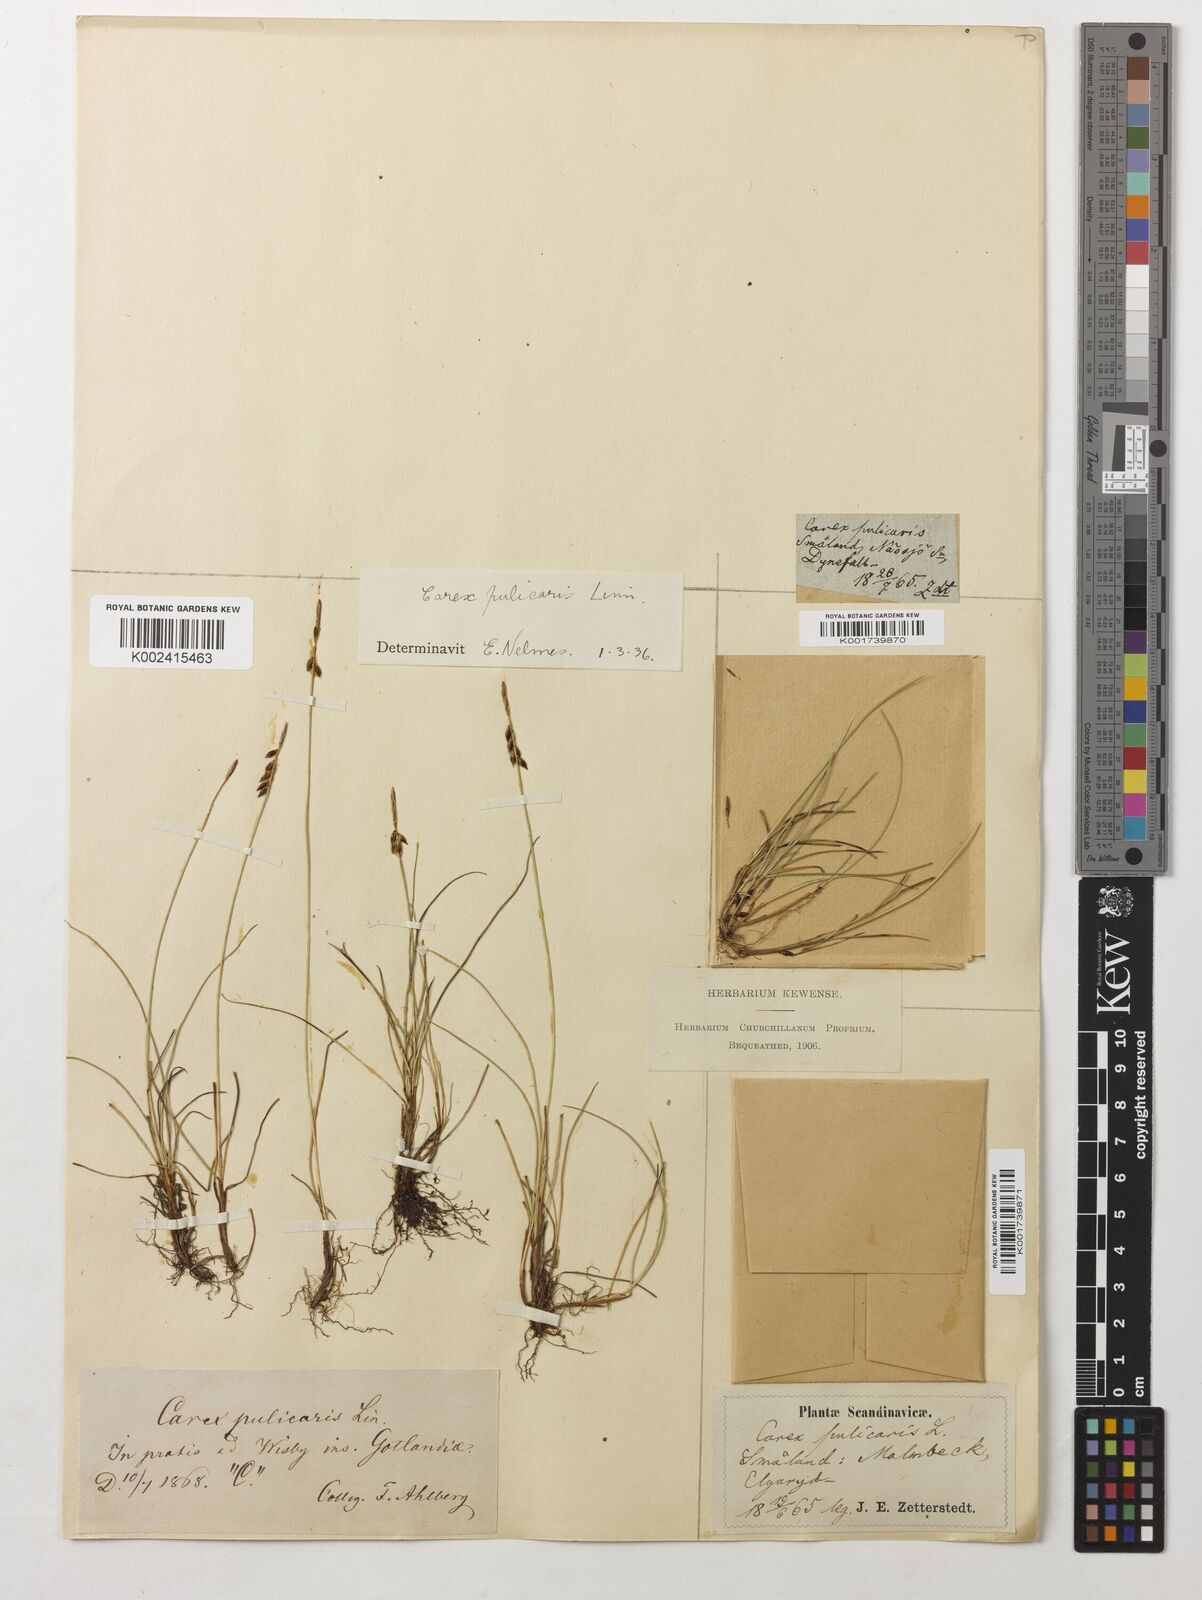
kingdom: Plantae
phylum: Tracheophyta
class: Liliopsida
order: Poales
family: Cyperaceae
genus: Carex
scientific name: Carex pulicaris
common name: Flea sedge
